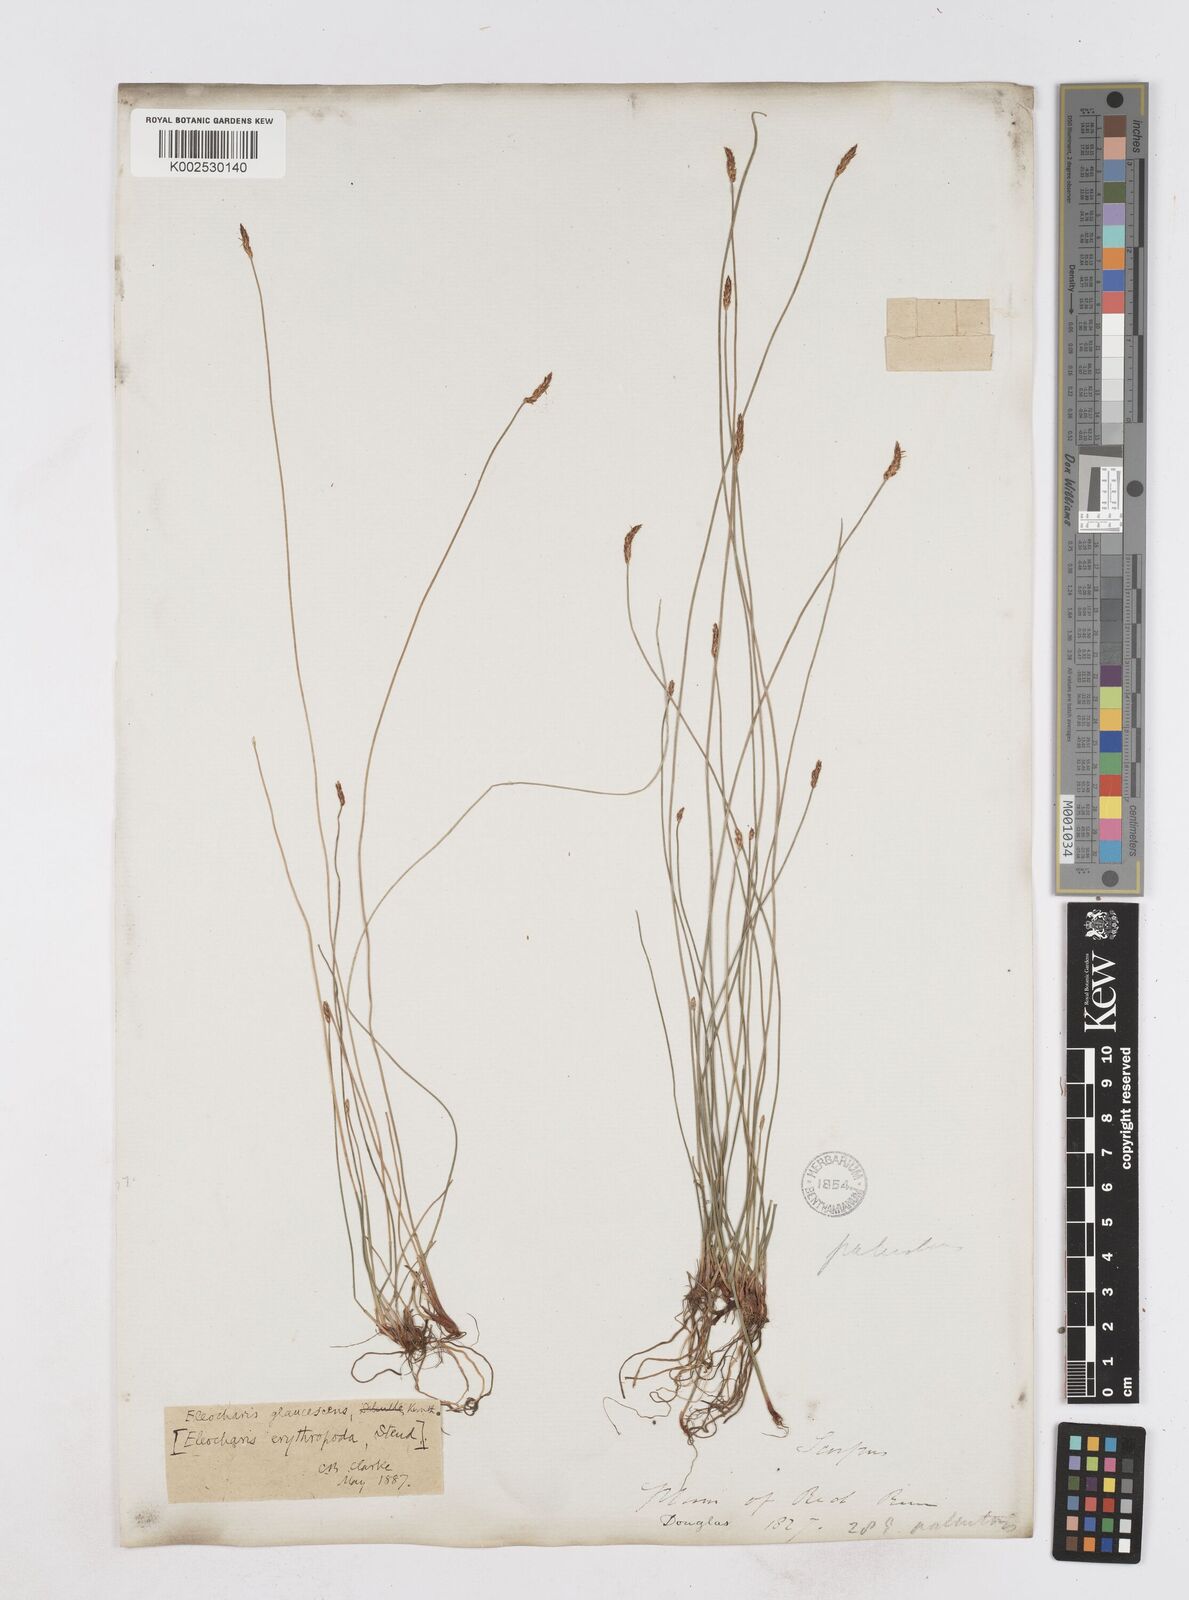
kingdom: Plantae
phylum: Tracheophyta
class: Liliopsida
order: Poales
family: Cyperaceae
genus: Eleocharis
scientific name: Eleocharis erythropoda
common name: Bald spikerush
